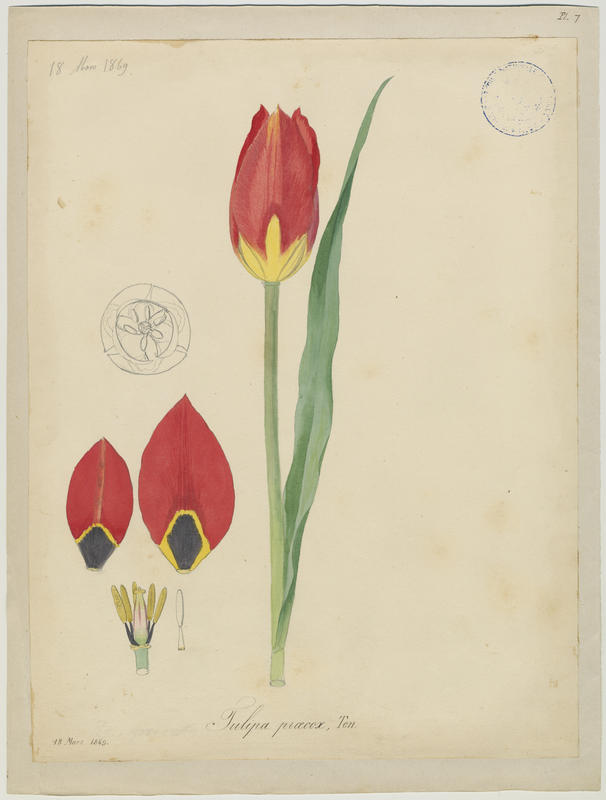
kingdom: Plantae
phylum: Tracheophyta
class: Liliopsida
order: Liliales
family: Liliaceae
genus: Tulipa
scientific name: Tulipa agenensis
